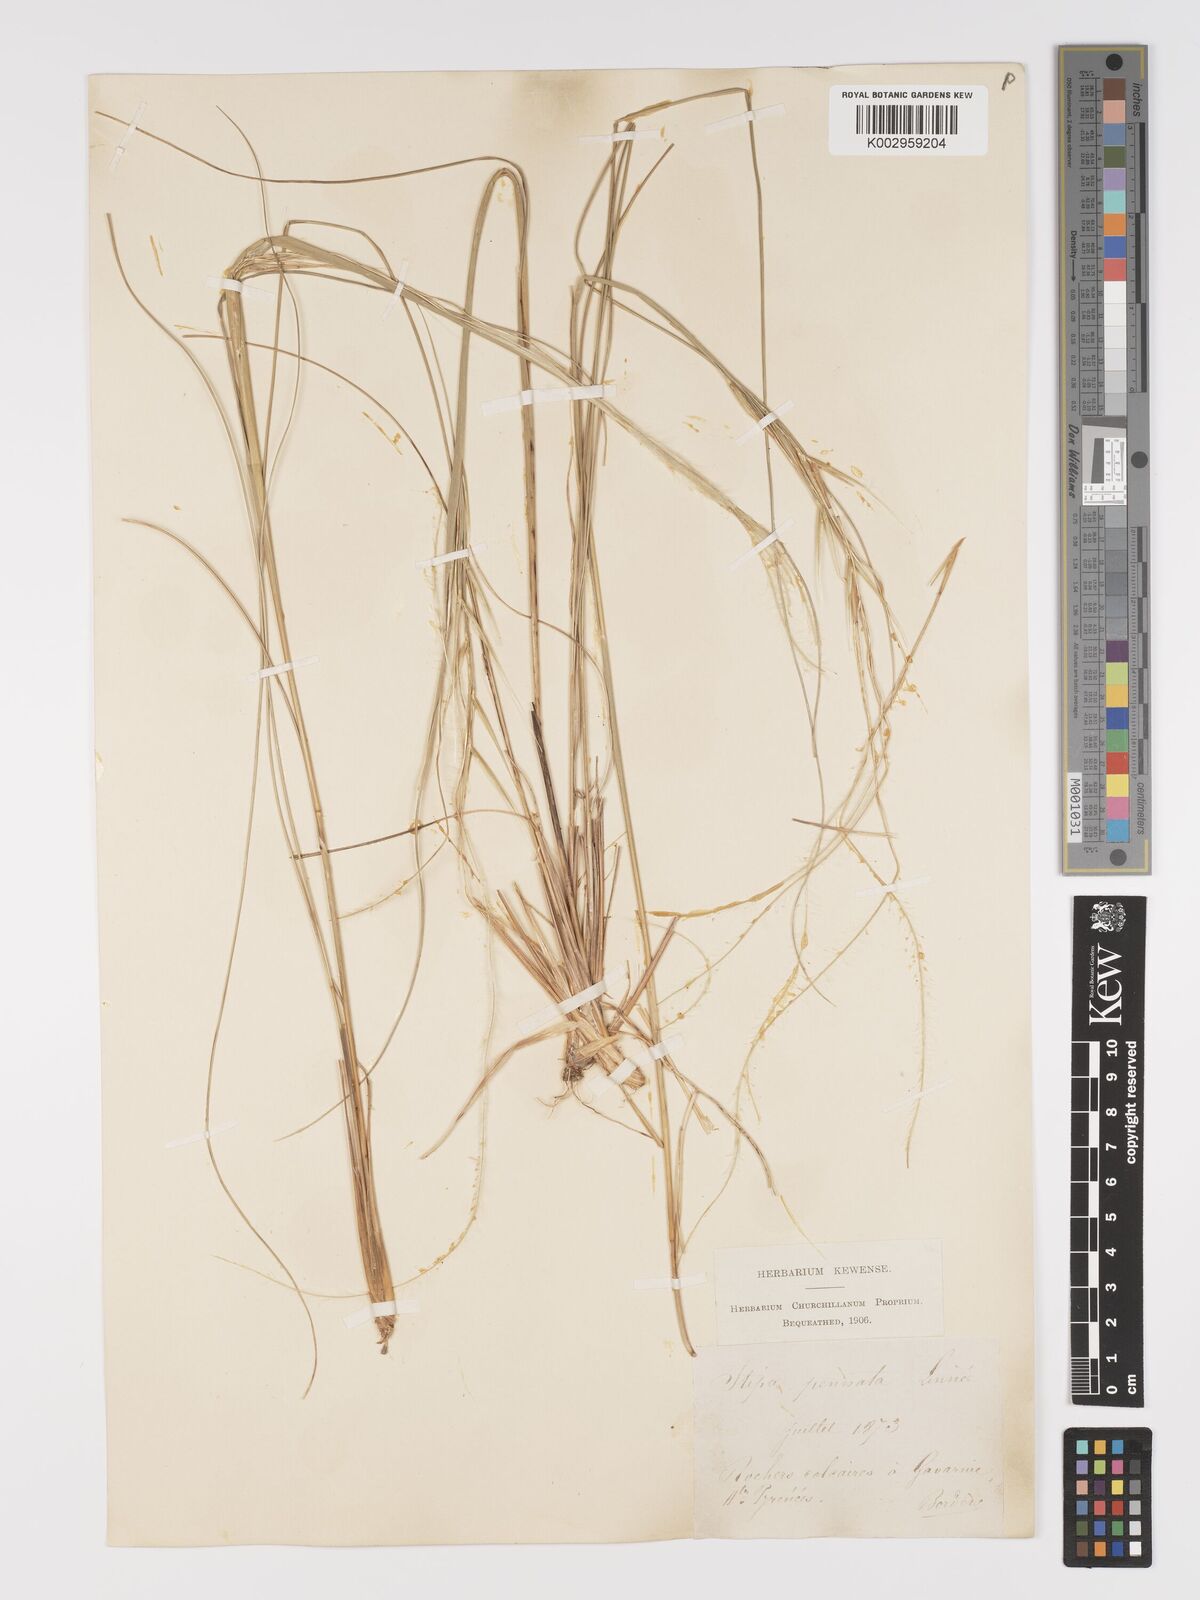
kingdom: Plantae
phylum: Tracheophyta
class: Liliopsida
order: Poales
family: Poaceae
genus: Stipa
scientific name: Stipa pennata
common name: European feather grass
